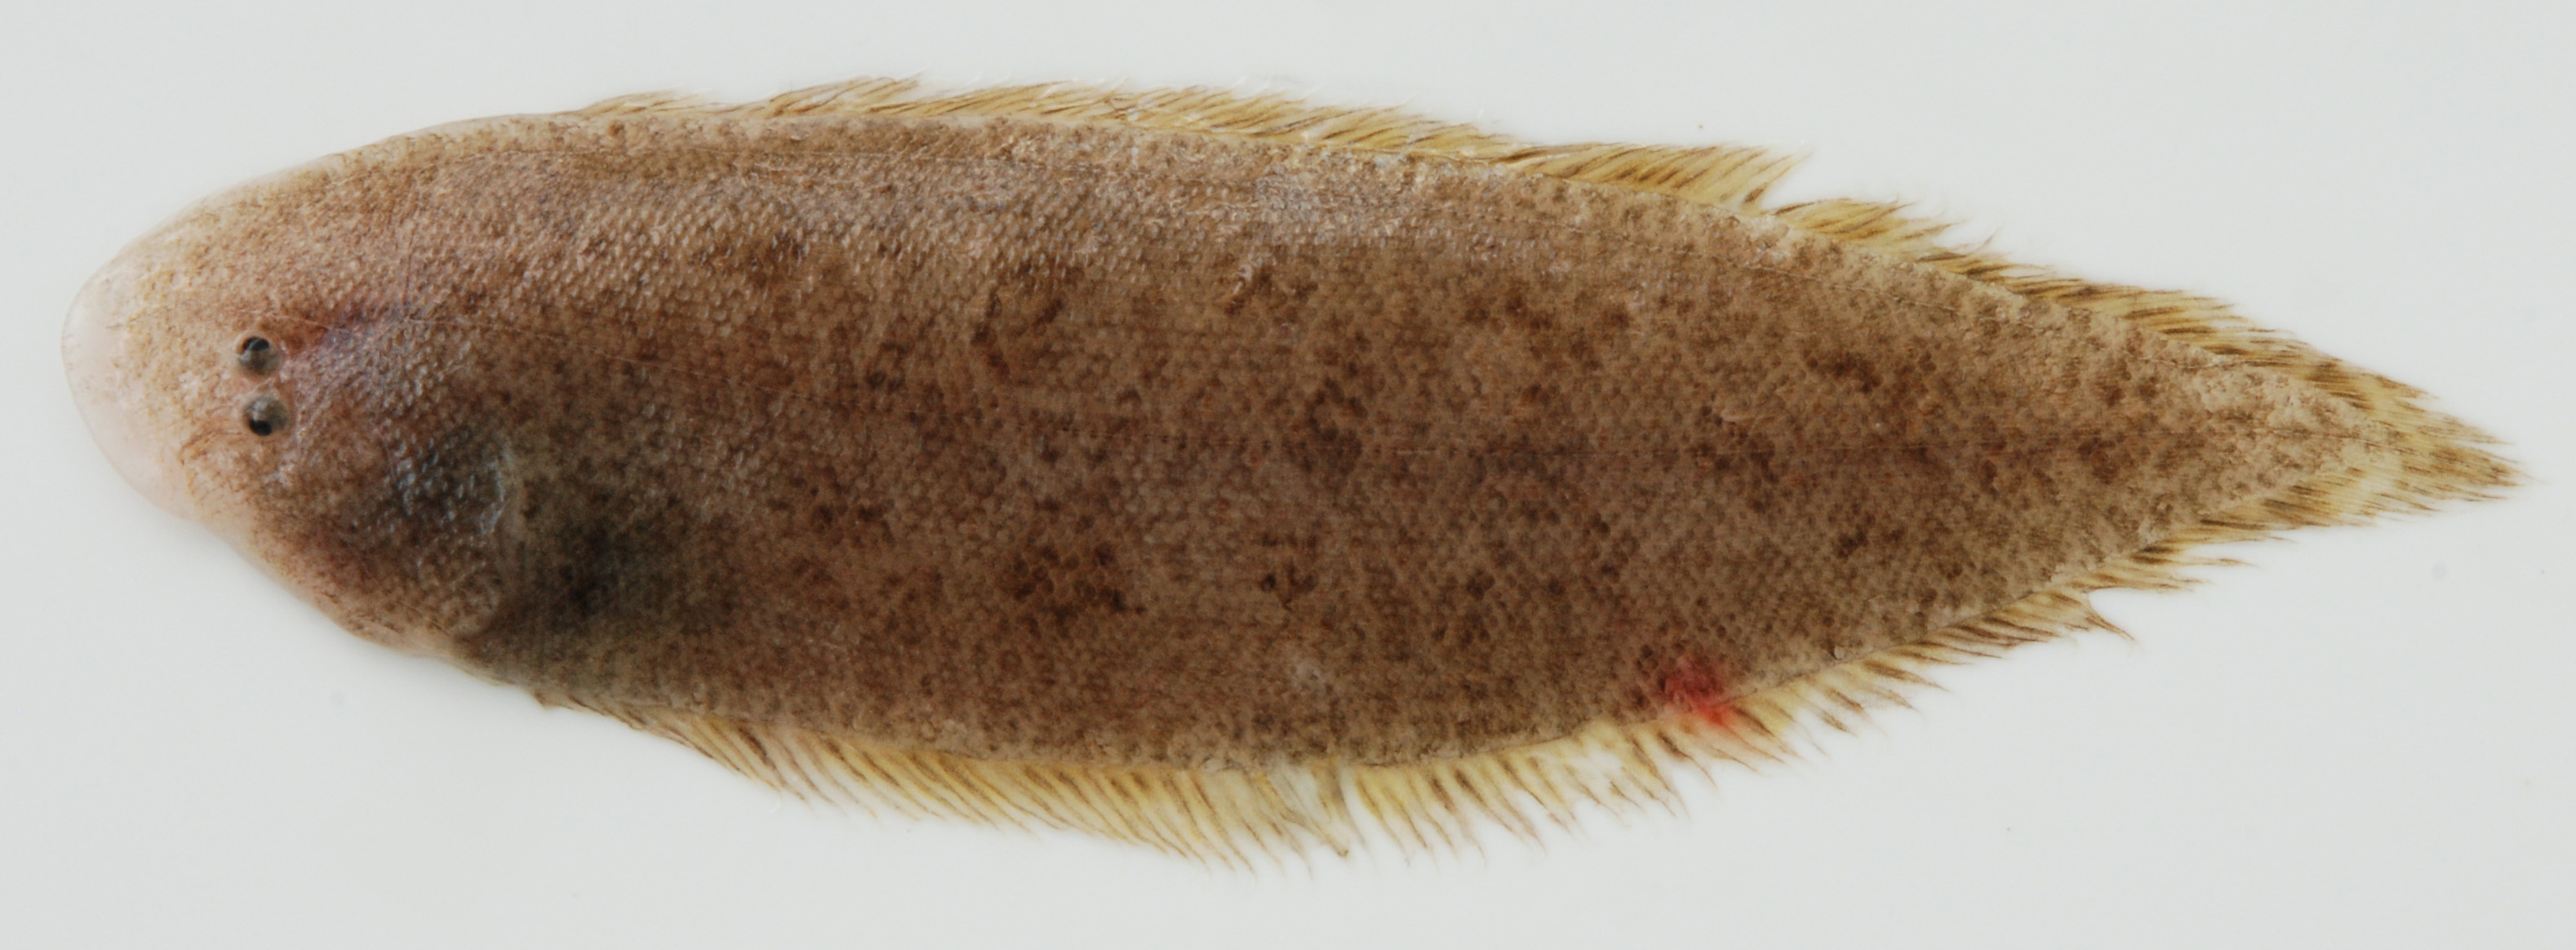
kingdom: Animalia
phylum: Chordata
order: Pleuronectiformes
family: Cynoglossidae
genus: Cynoglossus
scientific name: Cynoglossus attenuatus
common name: Fourline toungefish
